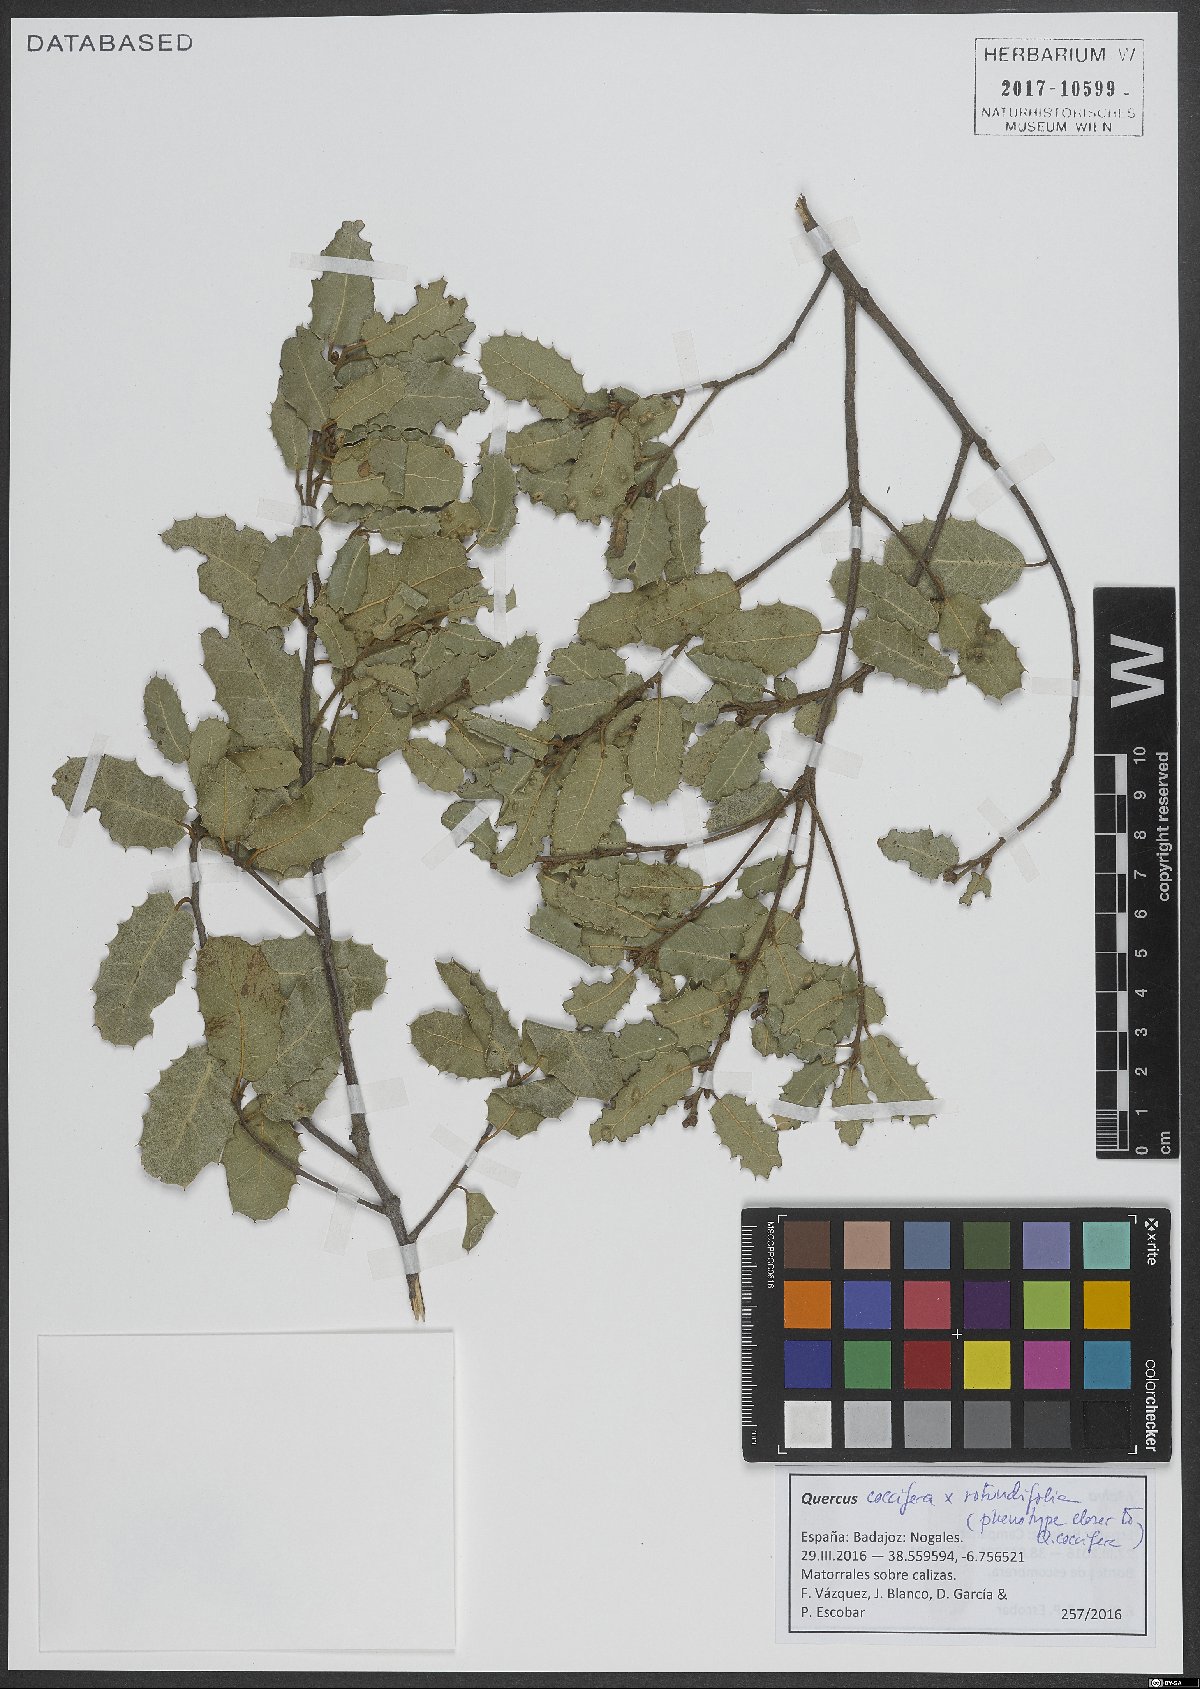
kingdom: Plantae
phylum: Tracheophyta
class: Magnoliopsida
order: Fagales
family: Fagaceae
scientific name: Fagaceae
